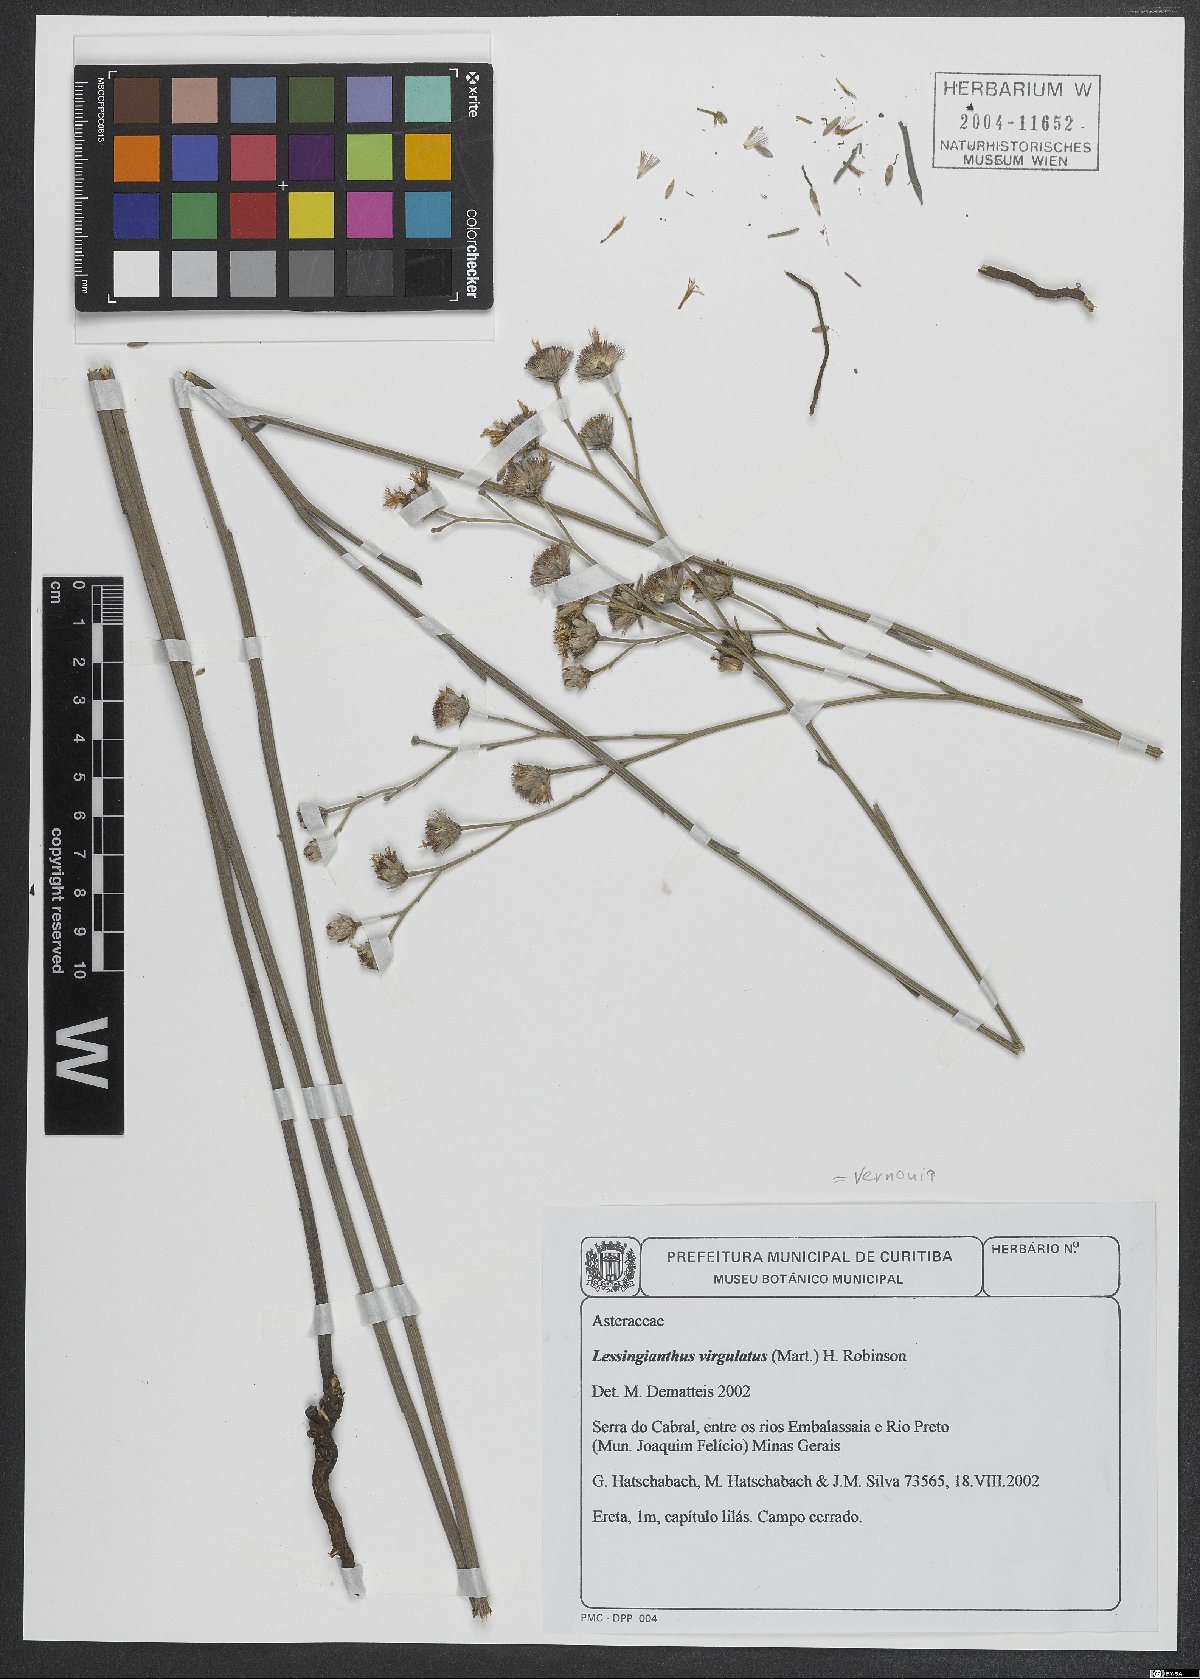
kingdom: Plantae
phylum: Tracheophyta
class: Magnoliopsida
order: Asterales
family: Asteraceae
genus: Vernonia
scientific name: Vernonia
